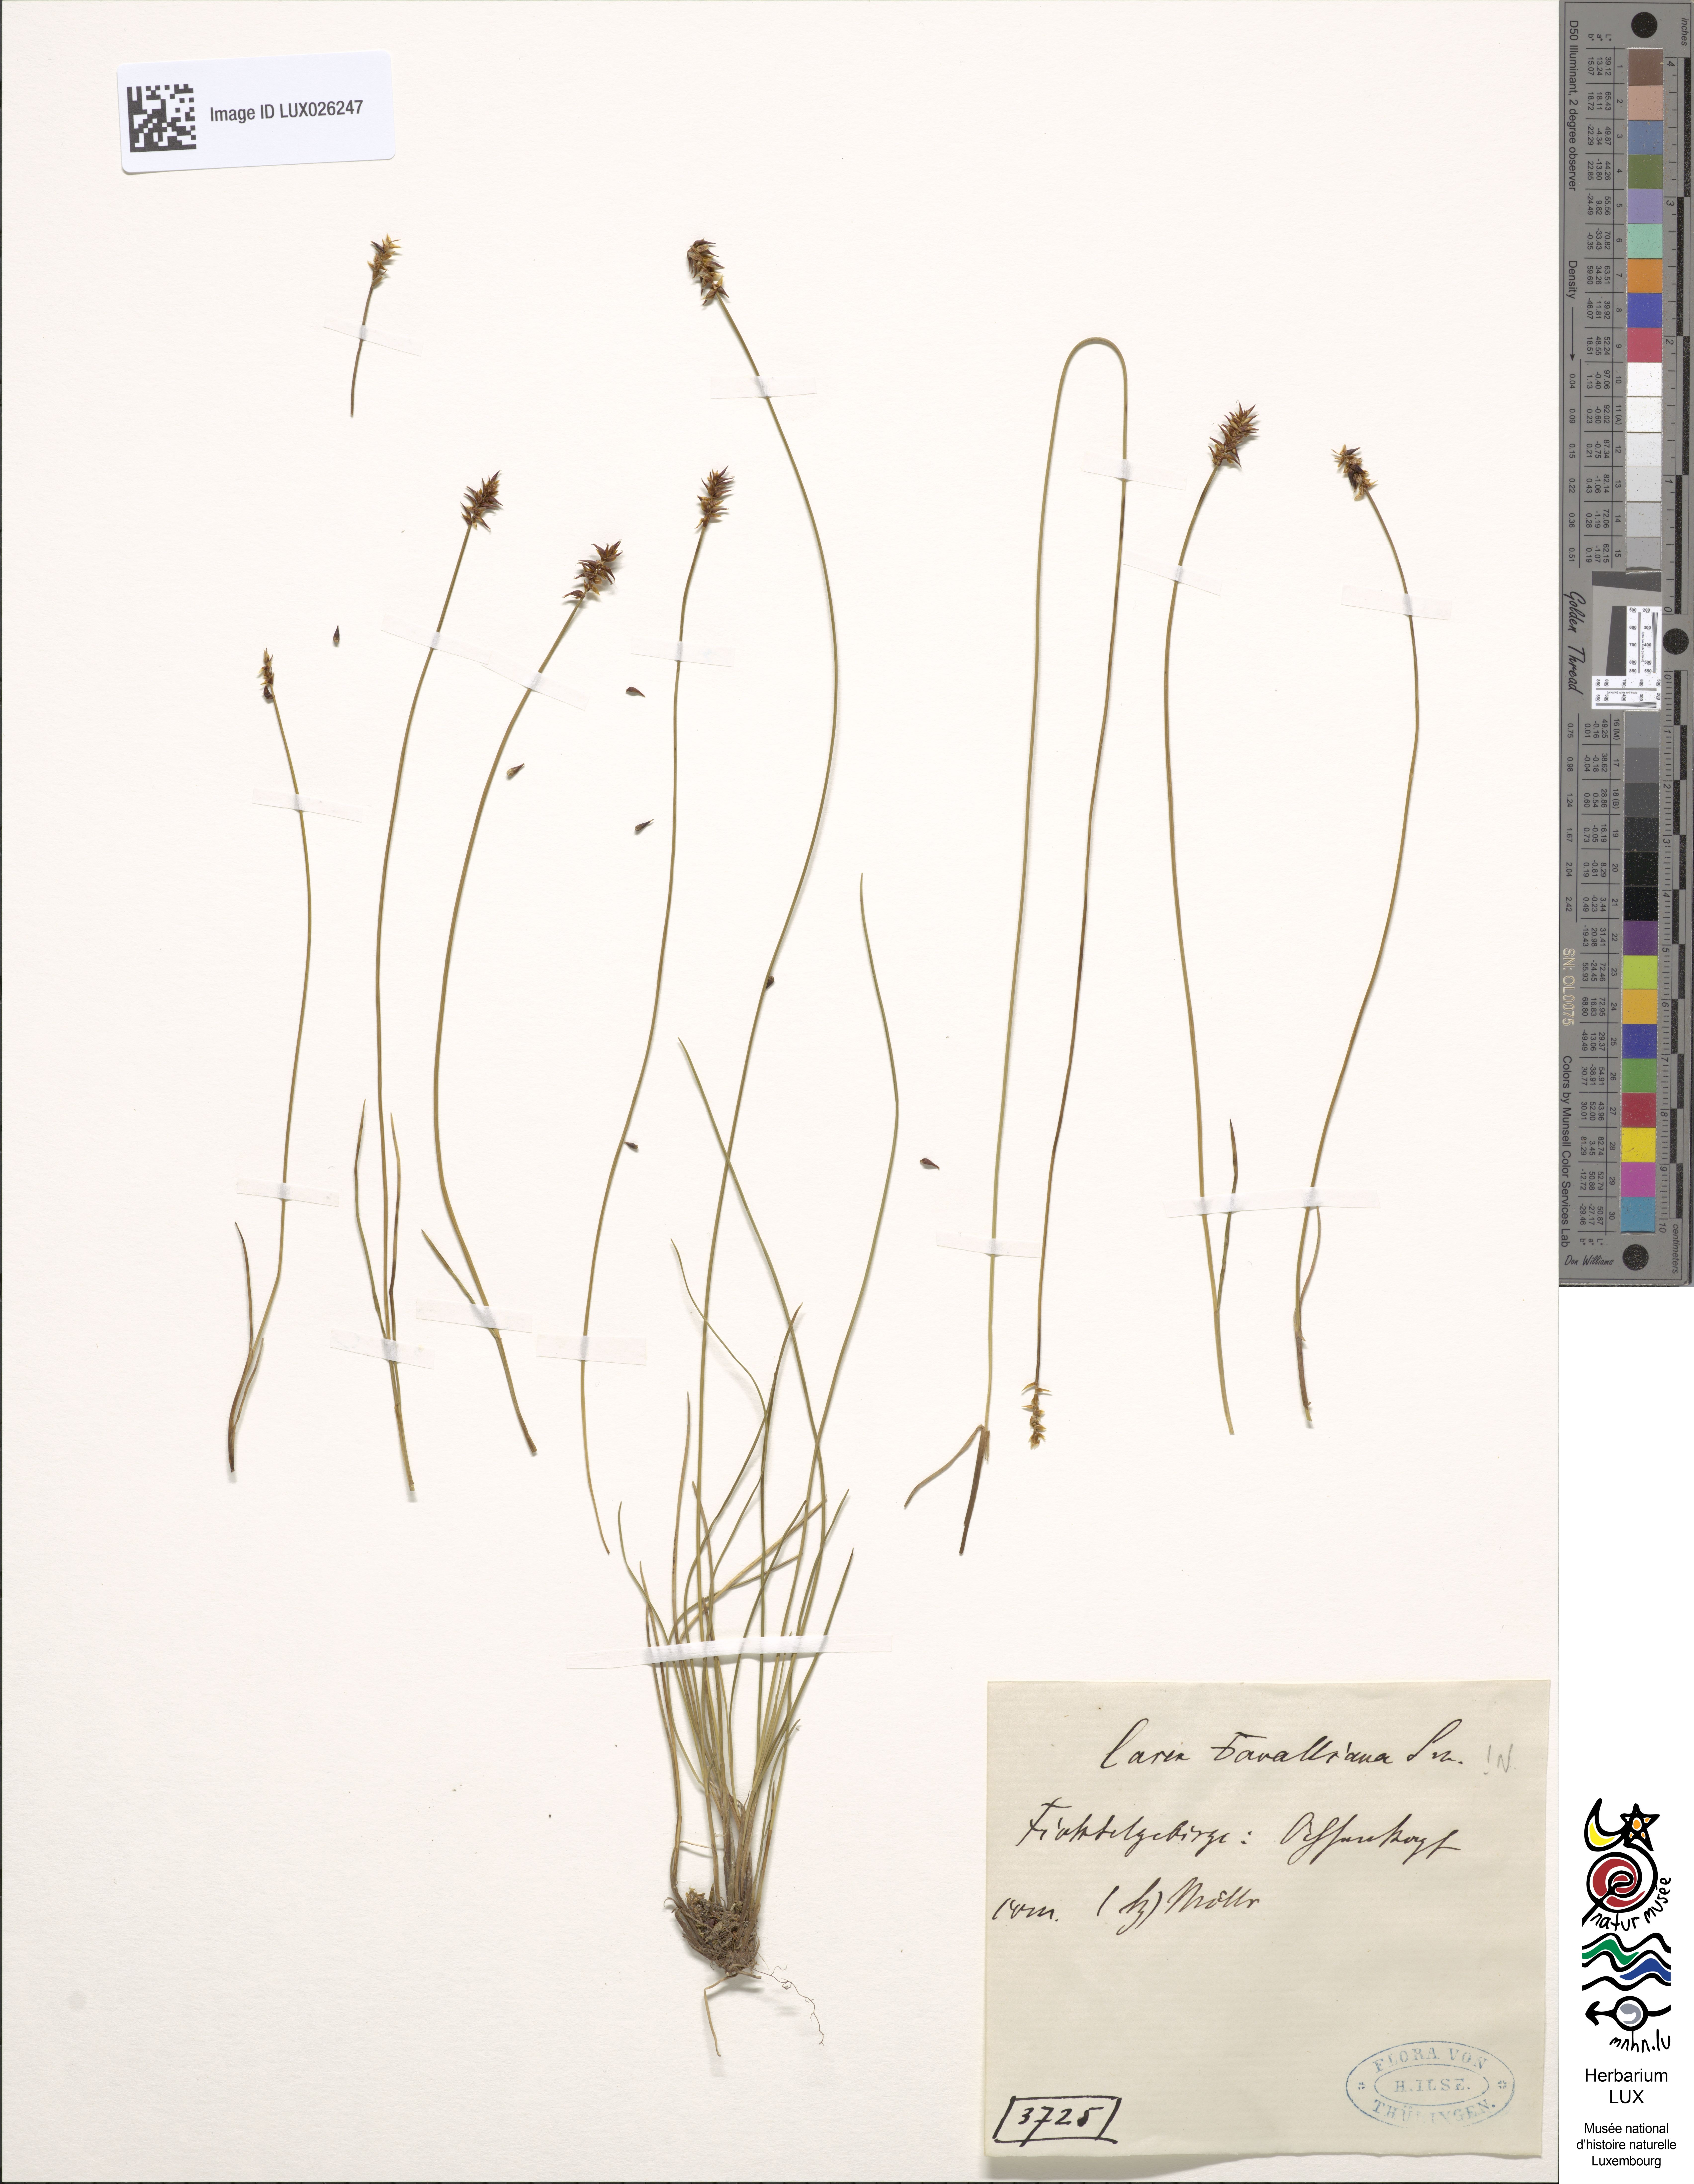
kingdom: Plantae
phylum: Tracheophyta
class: Liliopsida
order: Poales
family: Cyperaceae
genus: Carex
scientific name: Carex davalliana
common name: Davall's sedge
